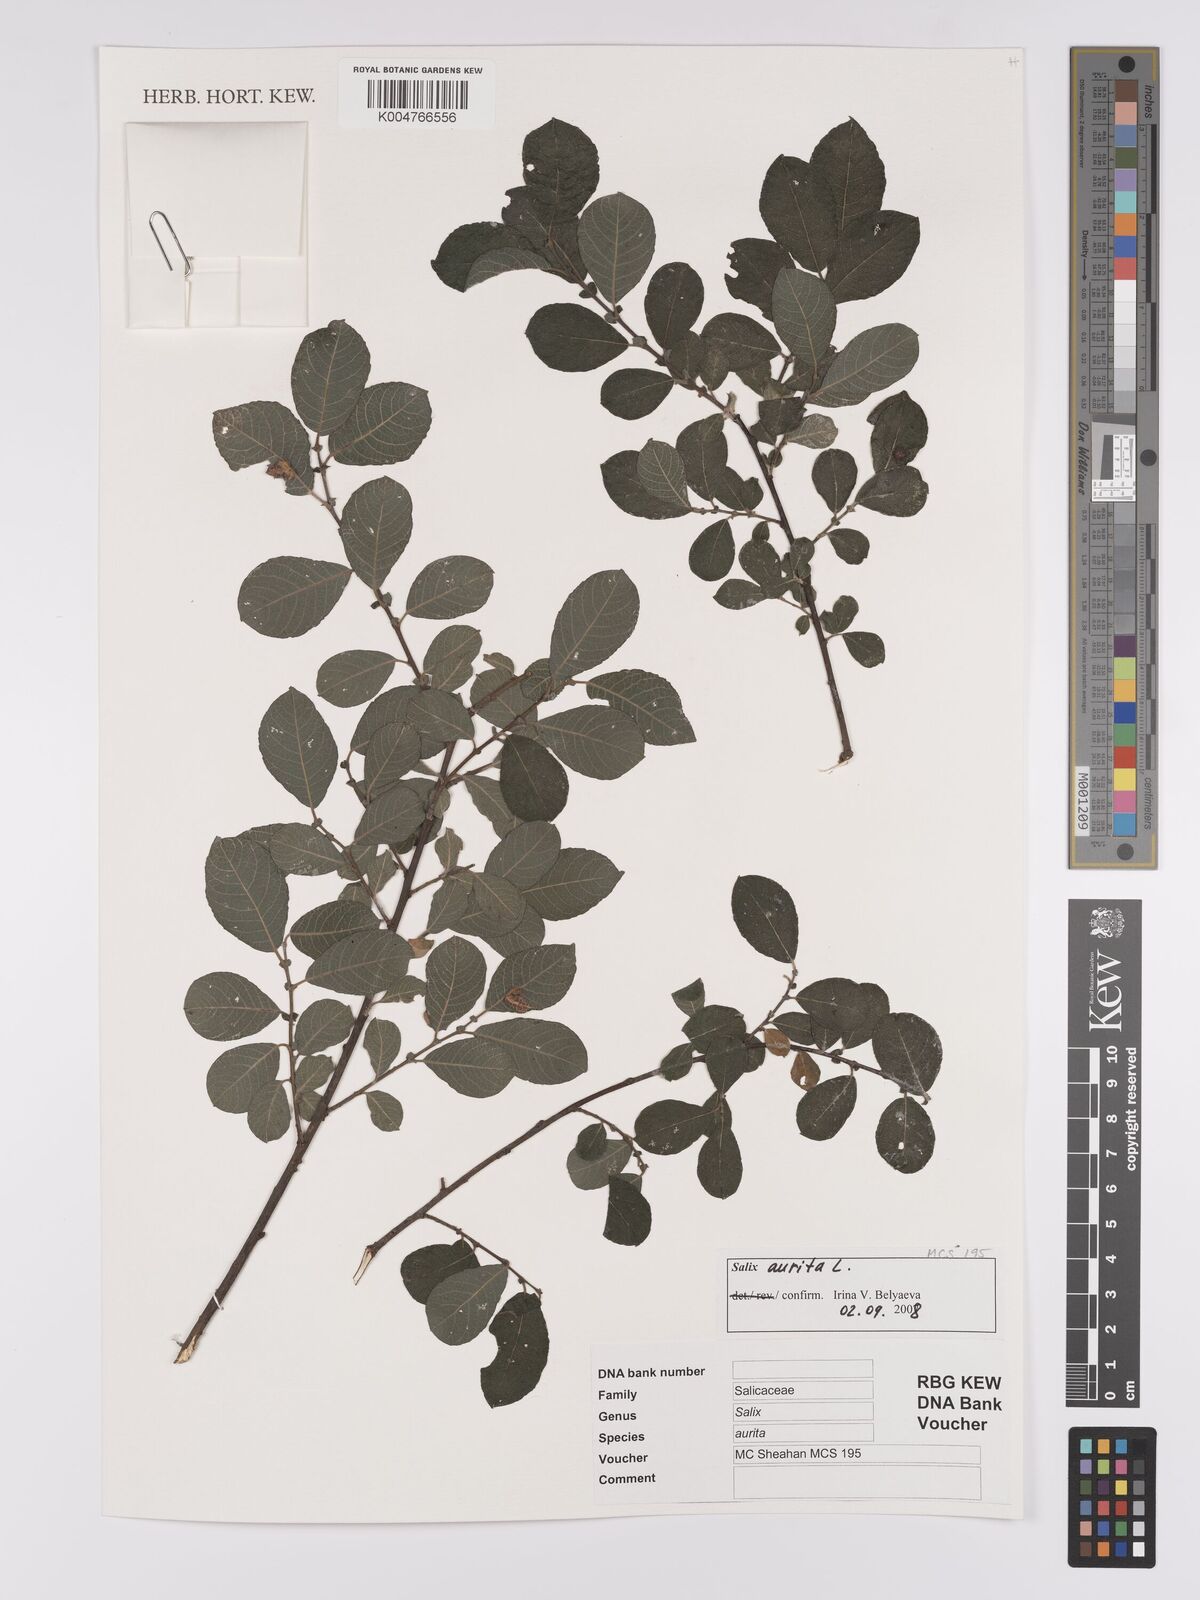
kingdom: Plantae
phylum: Tracheophyta
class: Magnoliopsida
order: Malpighiales
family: Salicaceae
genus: Salix
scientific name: Salix
